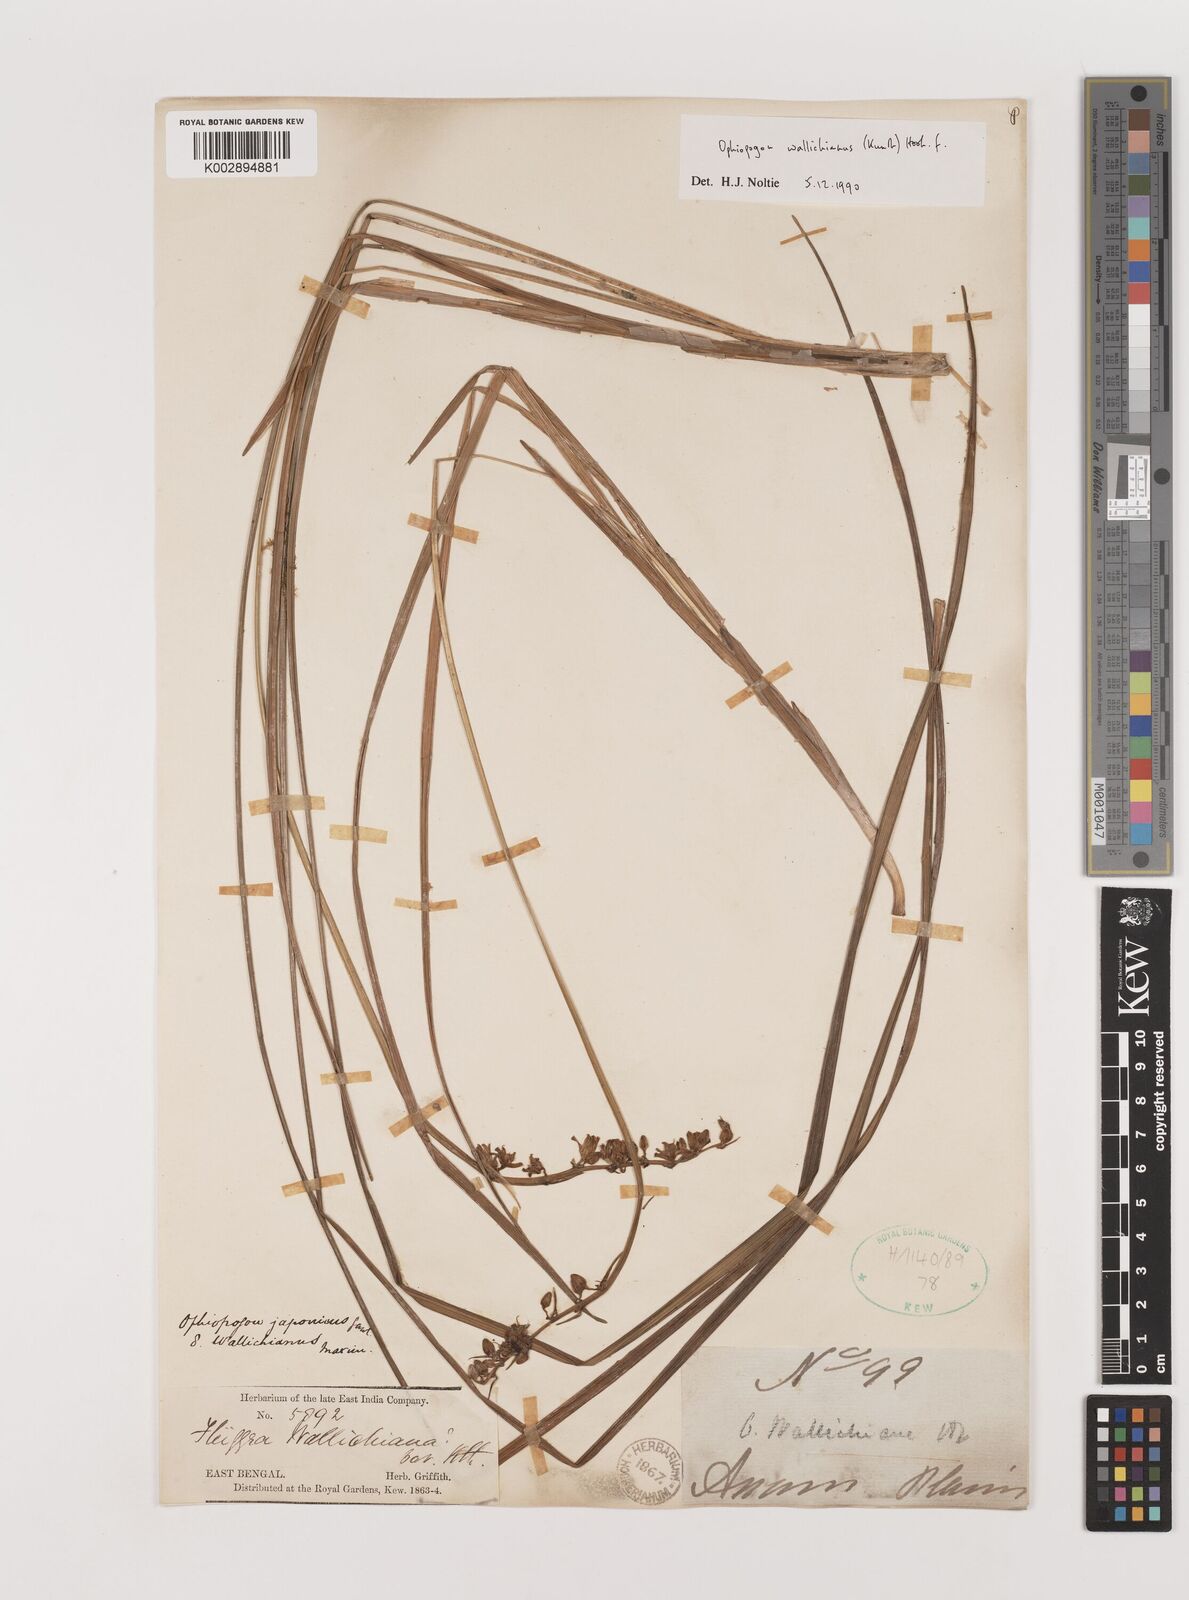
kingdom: Plantae
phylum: Tracheophyta
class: Liliopsida
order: Asparagales
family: Asparagaceae
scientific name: Asparagaceae
